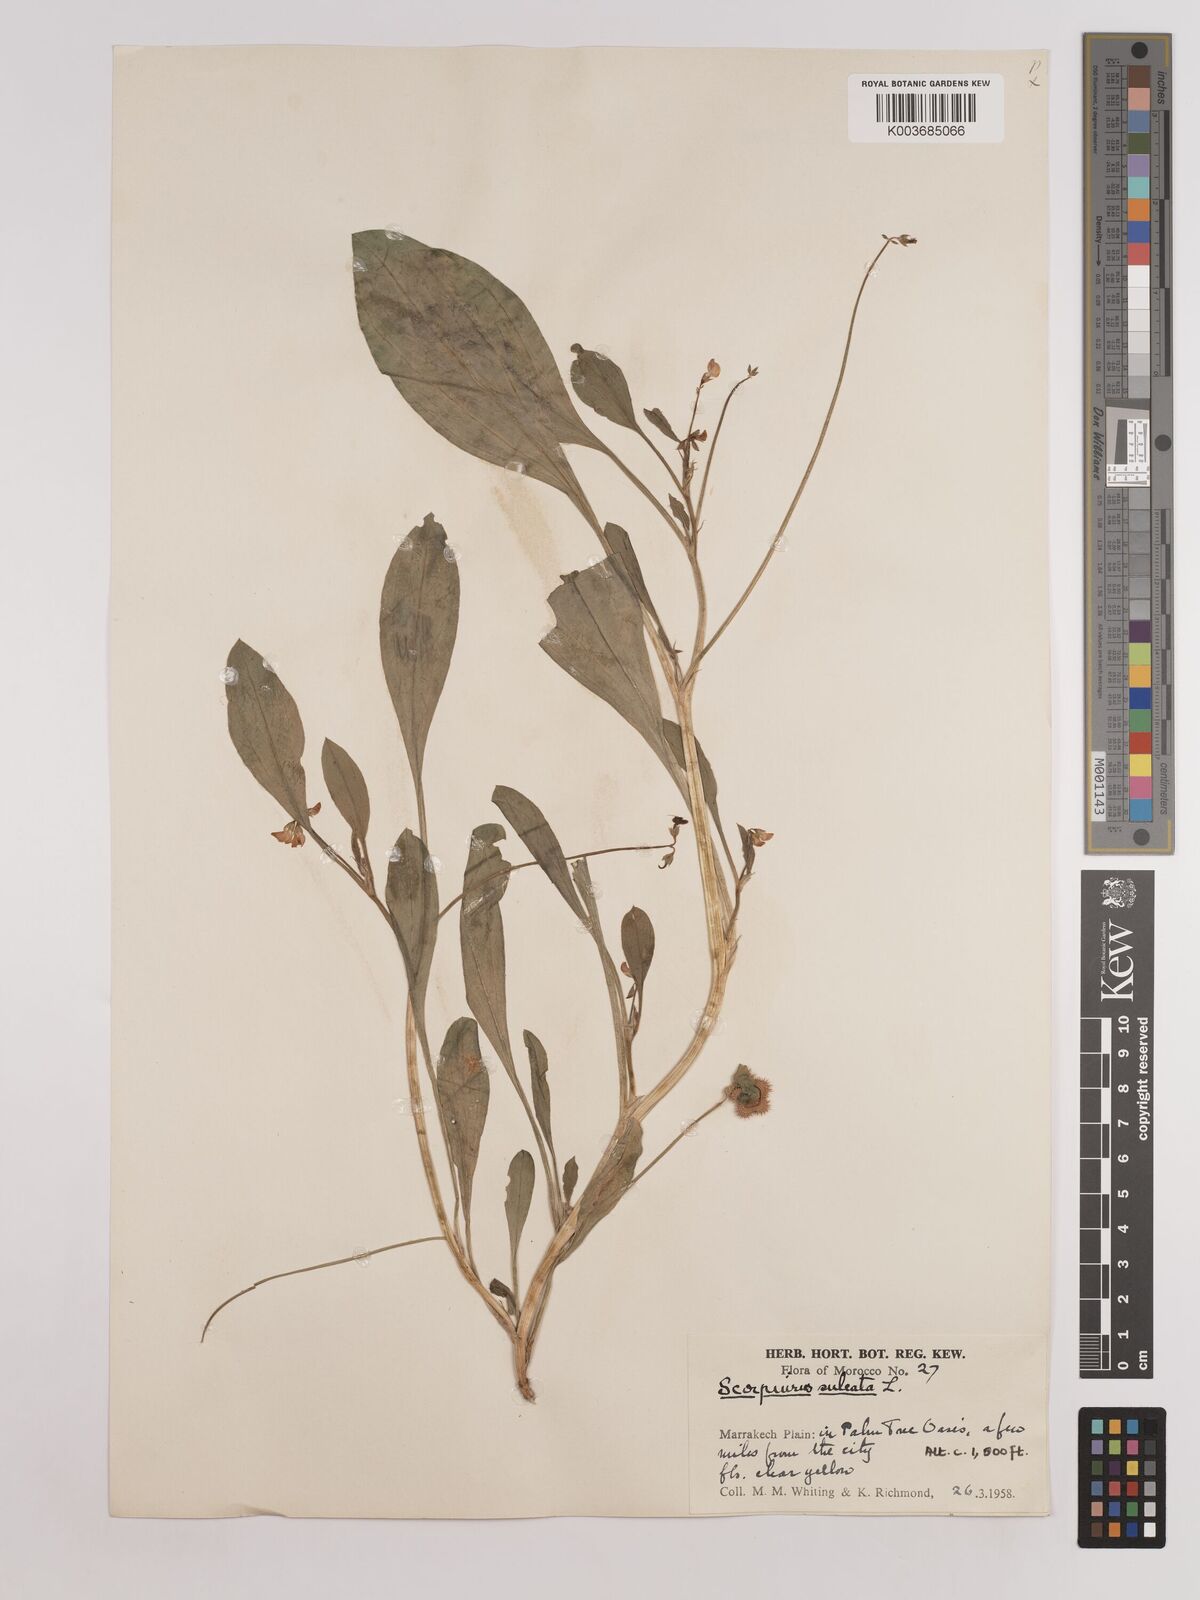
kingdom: Plantae
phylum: Tracheophyta
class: Magnoliopsida
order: Fabales
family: Fabaceae
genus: Scorpiurus
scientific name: Scorpiurus muricatus
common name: Caterpillar-plant
